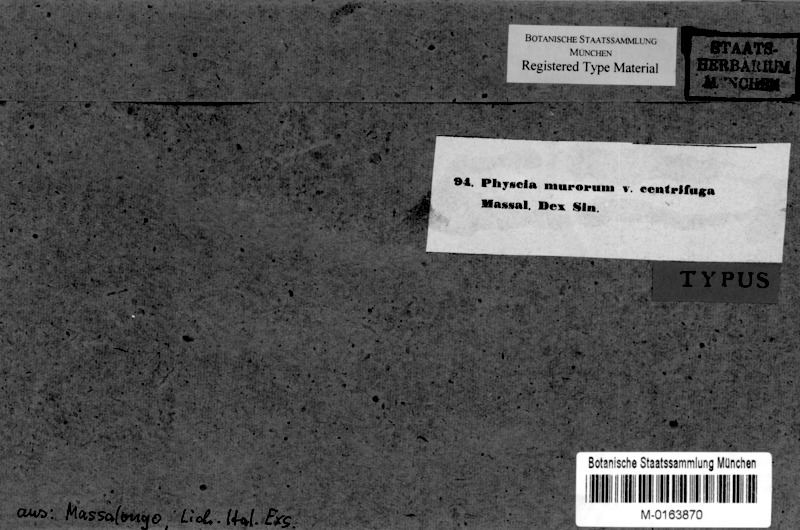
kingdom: Fungi
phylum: Ascomycota
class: Lecanoromycetes
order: Teloschistales
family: Teloschistaceae
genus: Variospora
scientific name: Variospora flavescens
